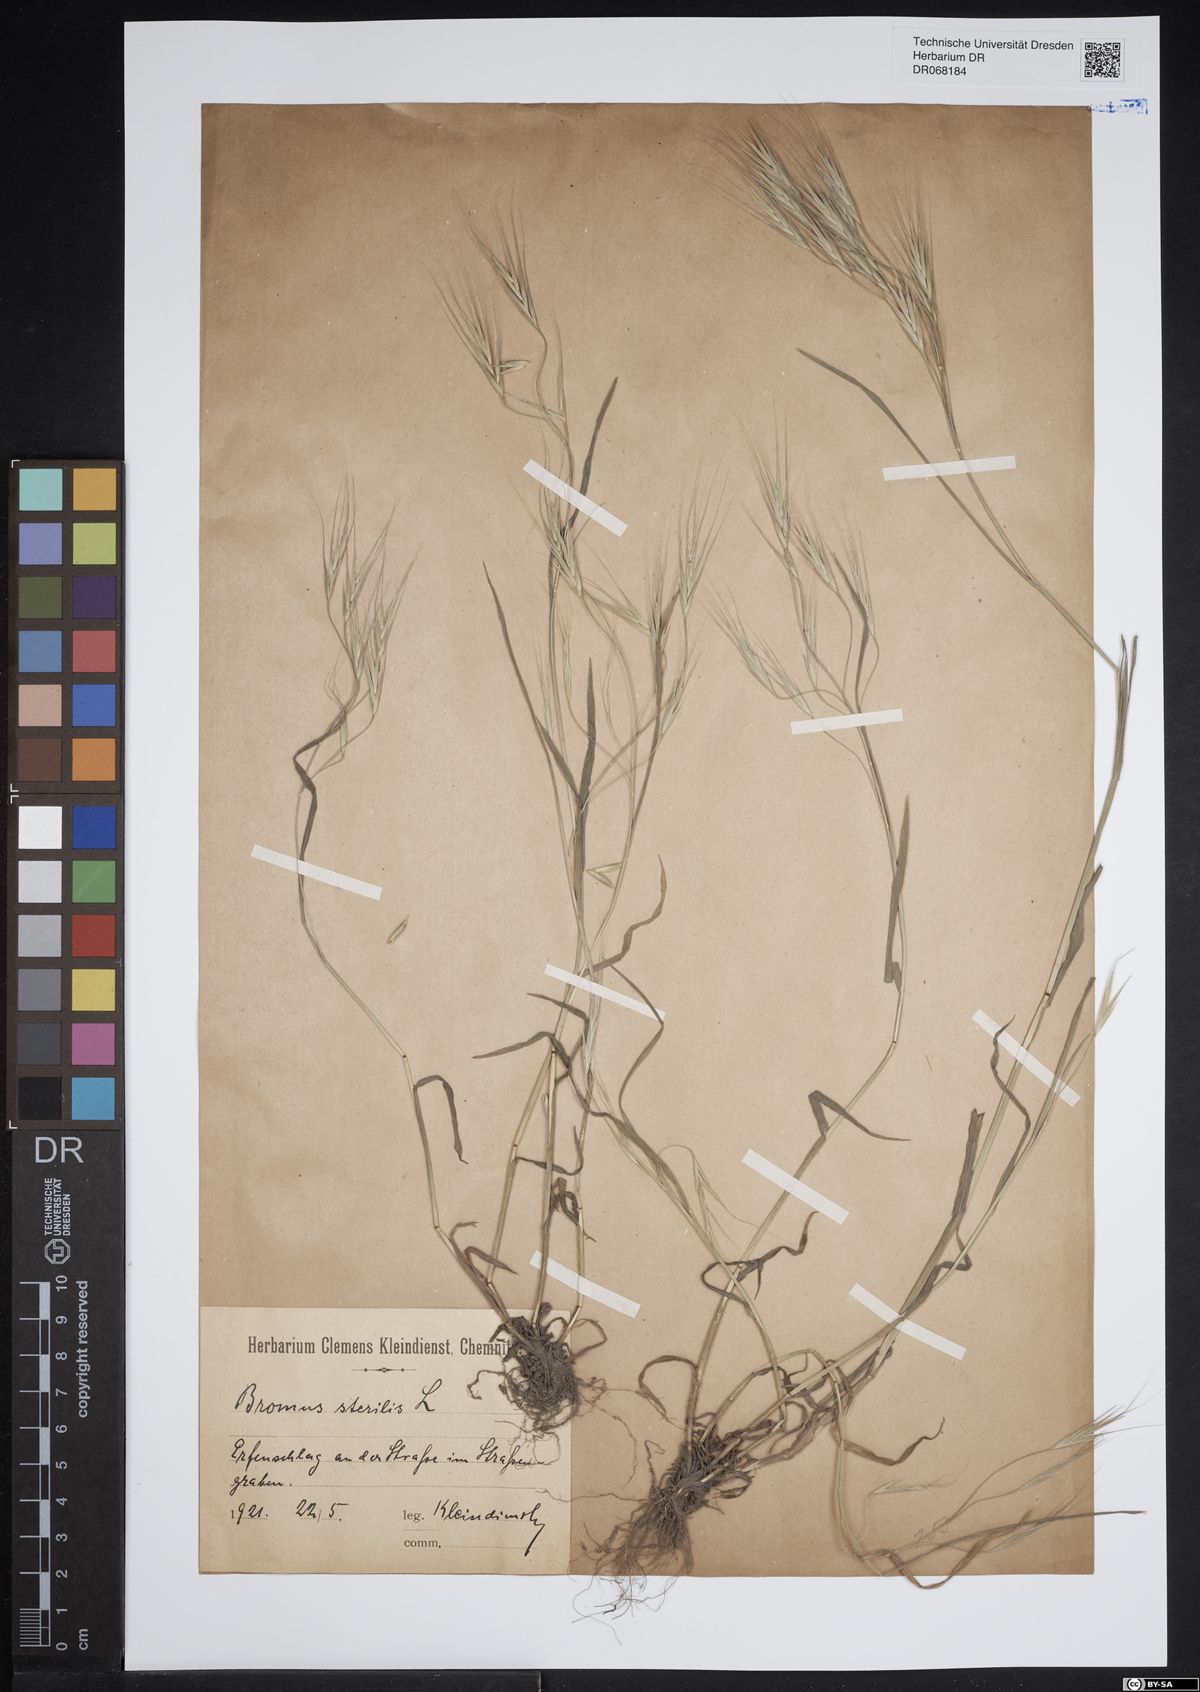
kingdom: Plantae
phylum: Tracheophyta
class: Liliopsida
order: Poales
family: Poaceae
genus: Bromus
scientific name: Bromus sterilis
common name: Poverty brome
